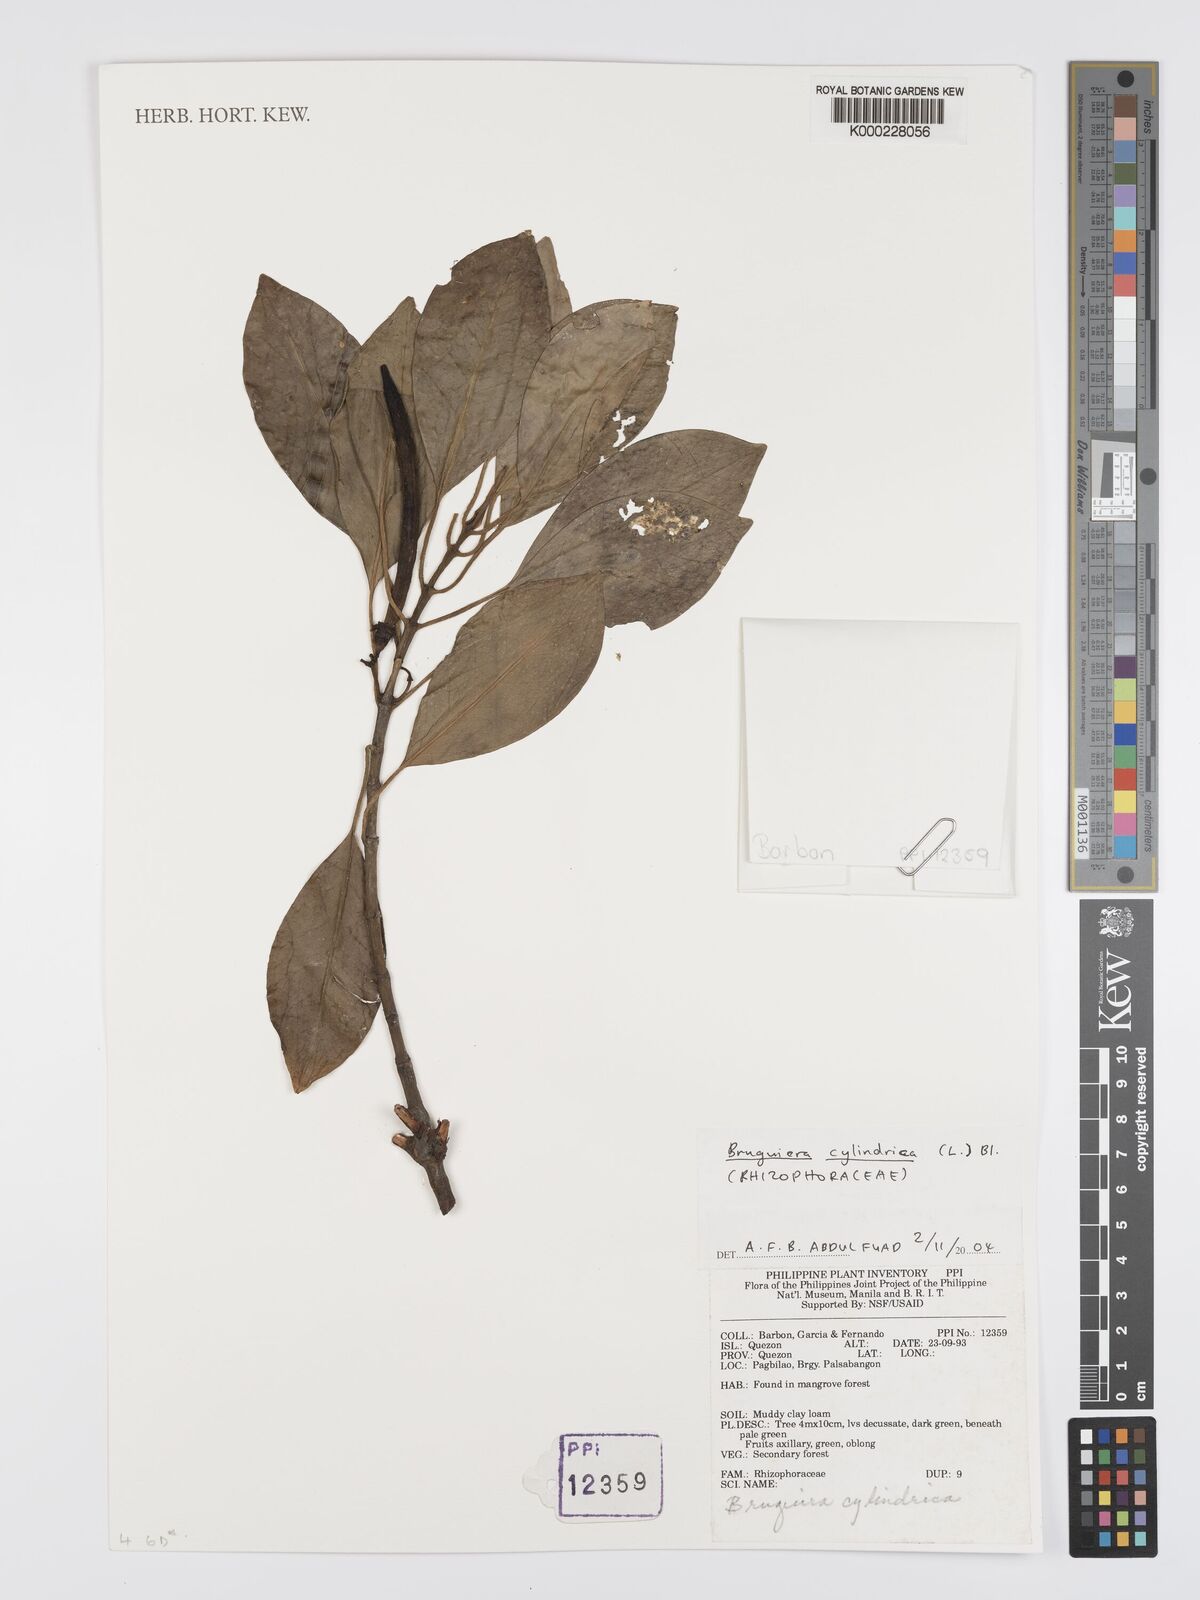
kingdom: Plantae
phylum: Tracheophyta
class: Magnoliopsida
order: Malpighiales
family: Rhizophoraceae
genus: Bruguiera
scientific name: Bruguiera cylindrica
